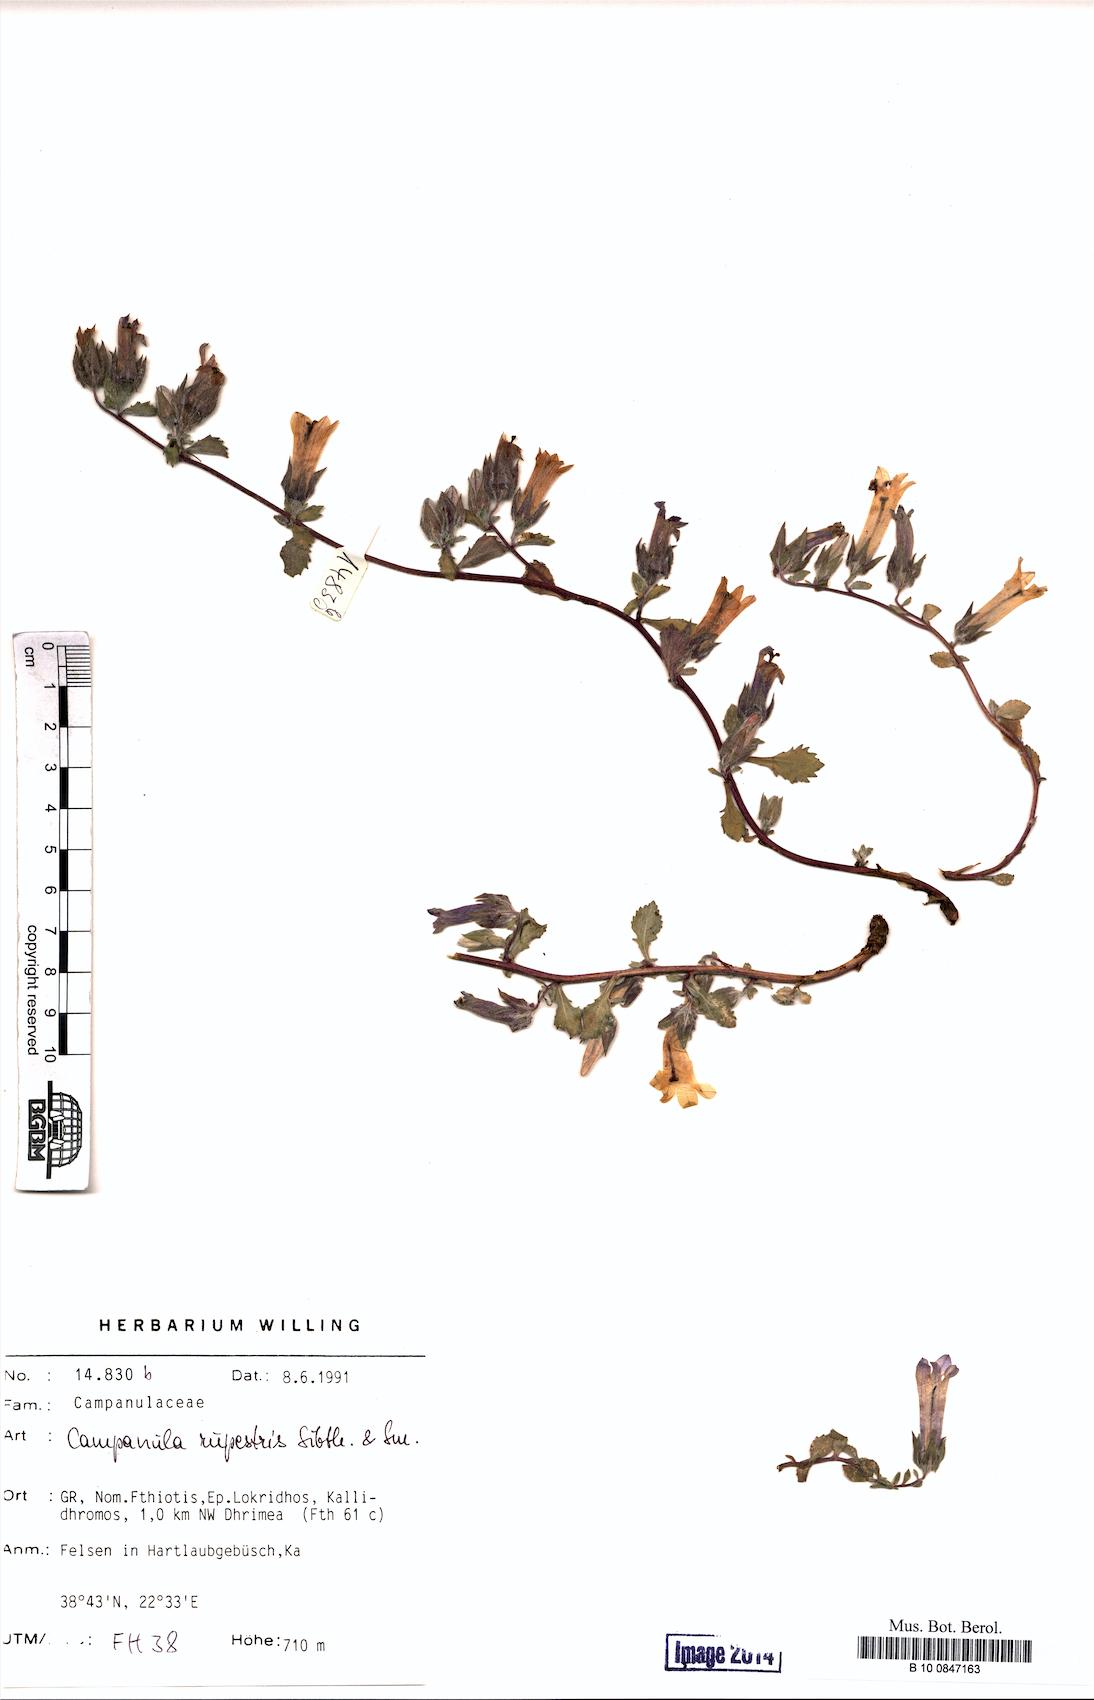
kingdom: Plantae
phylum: Tracheophyta
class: Magnoliopsida
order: Asterales
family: Campanulaceae
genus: Campanula
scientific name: Campanula rupestris
